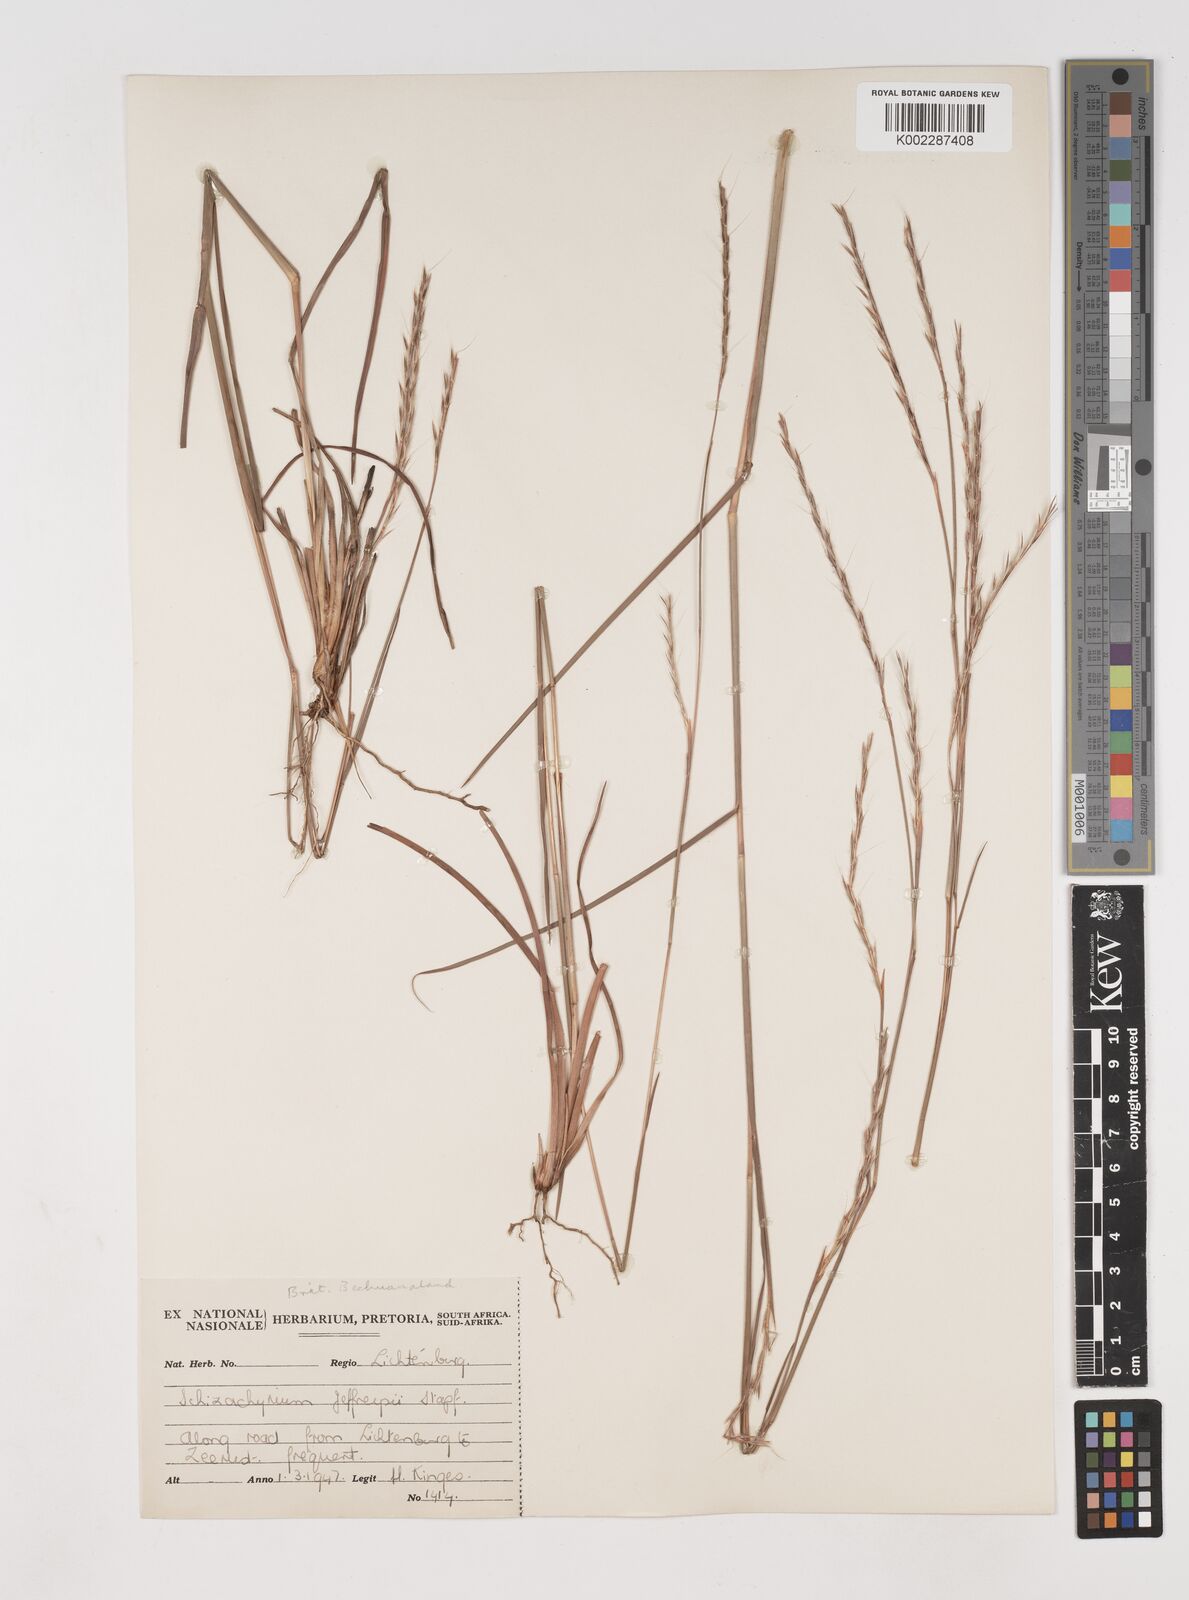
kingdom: Plantae
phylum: Tracheophyta
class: Liliopsida
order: Poales
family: Poaceae
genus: Schizachyrium
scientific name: Schizachyrium sanguineum
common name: Crimson bluestem
